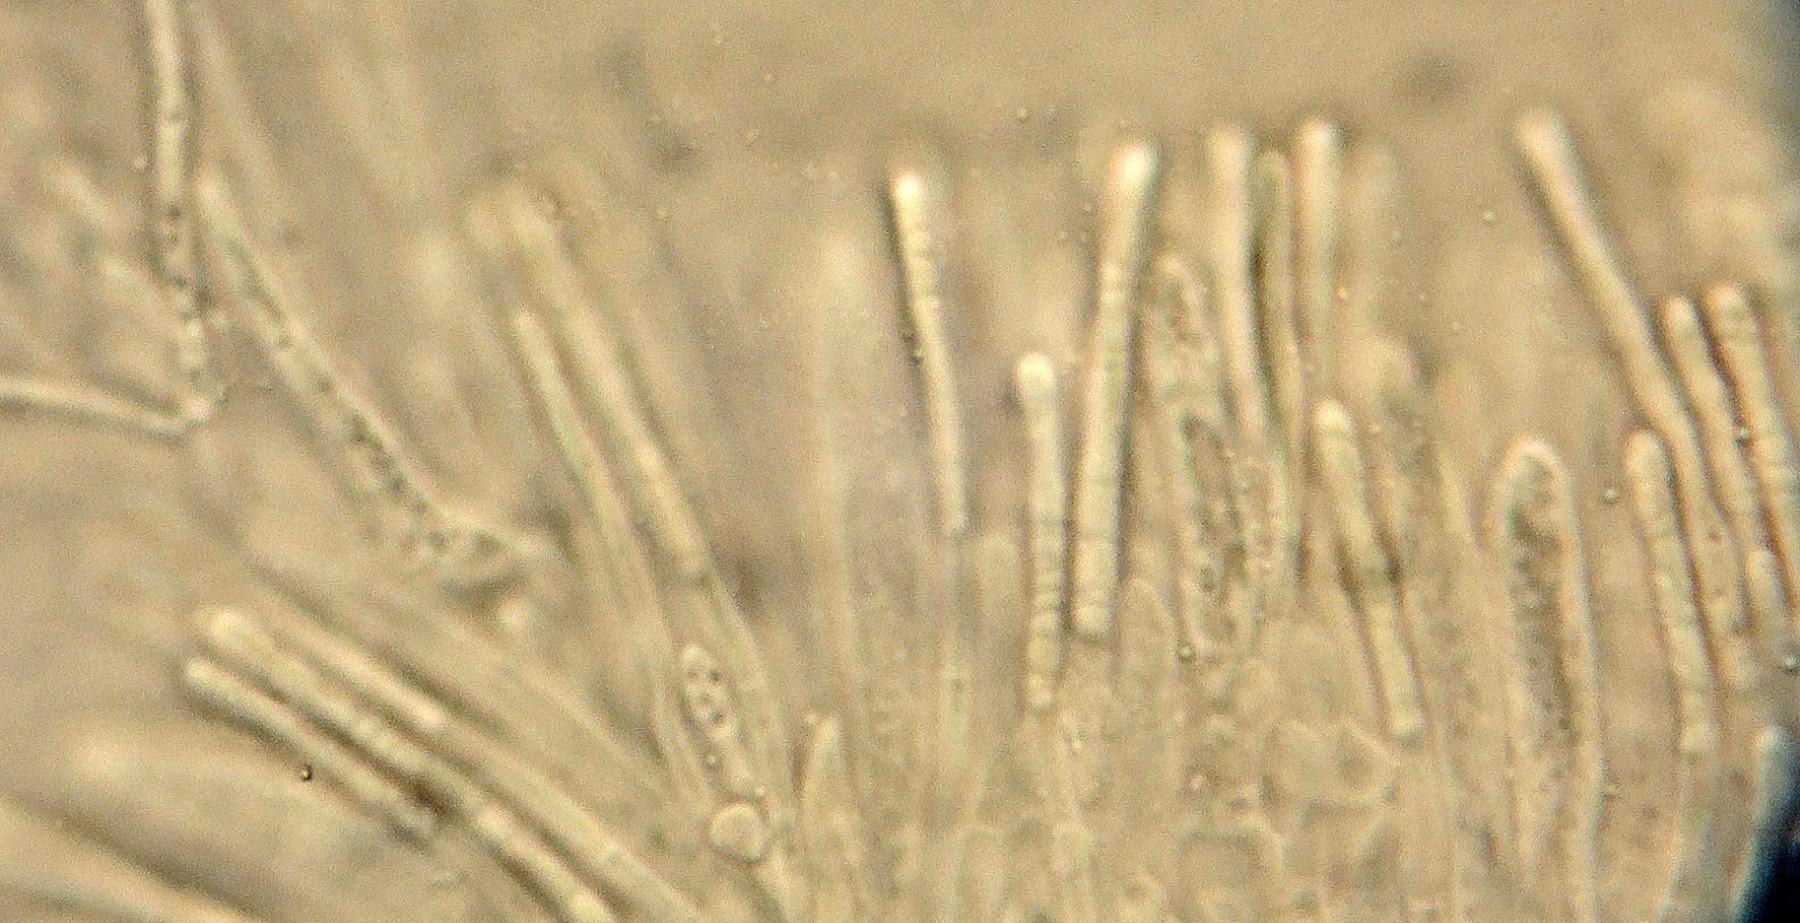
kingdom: Fungi
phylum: Ascomycota
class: Leotiomycetes
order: Helotiales
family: Pezizellaceae
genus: Calycina
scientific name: Calycina
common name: gulskive
